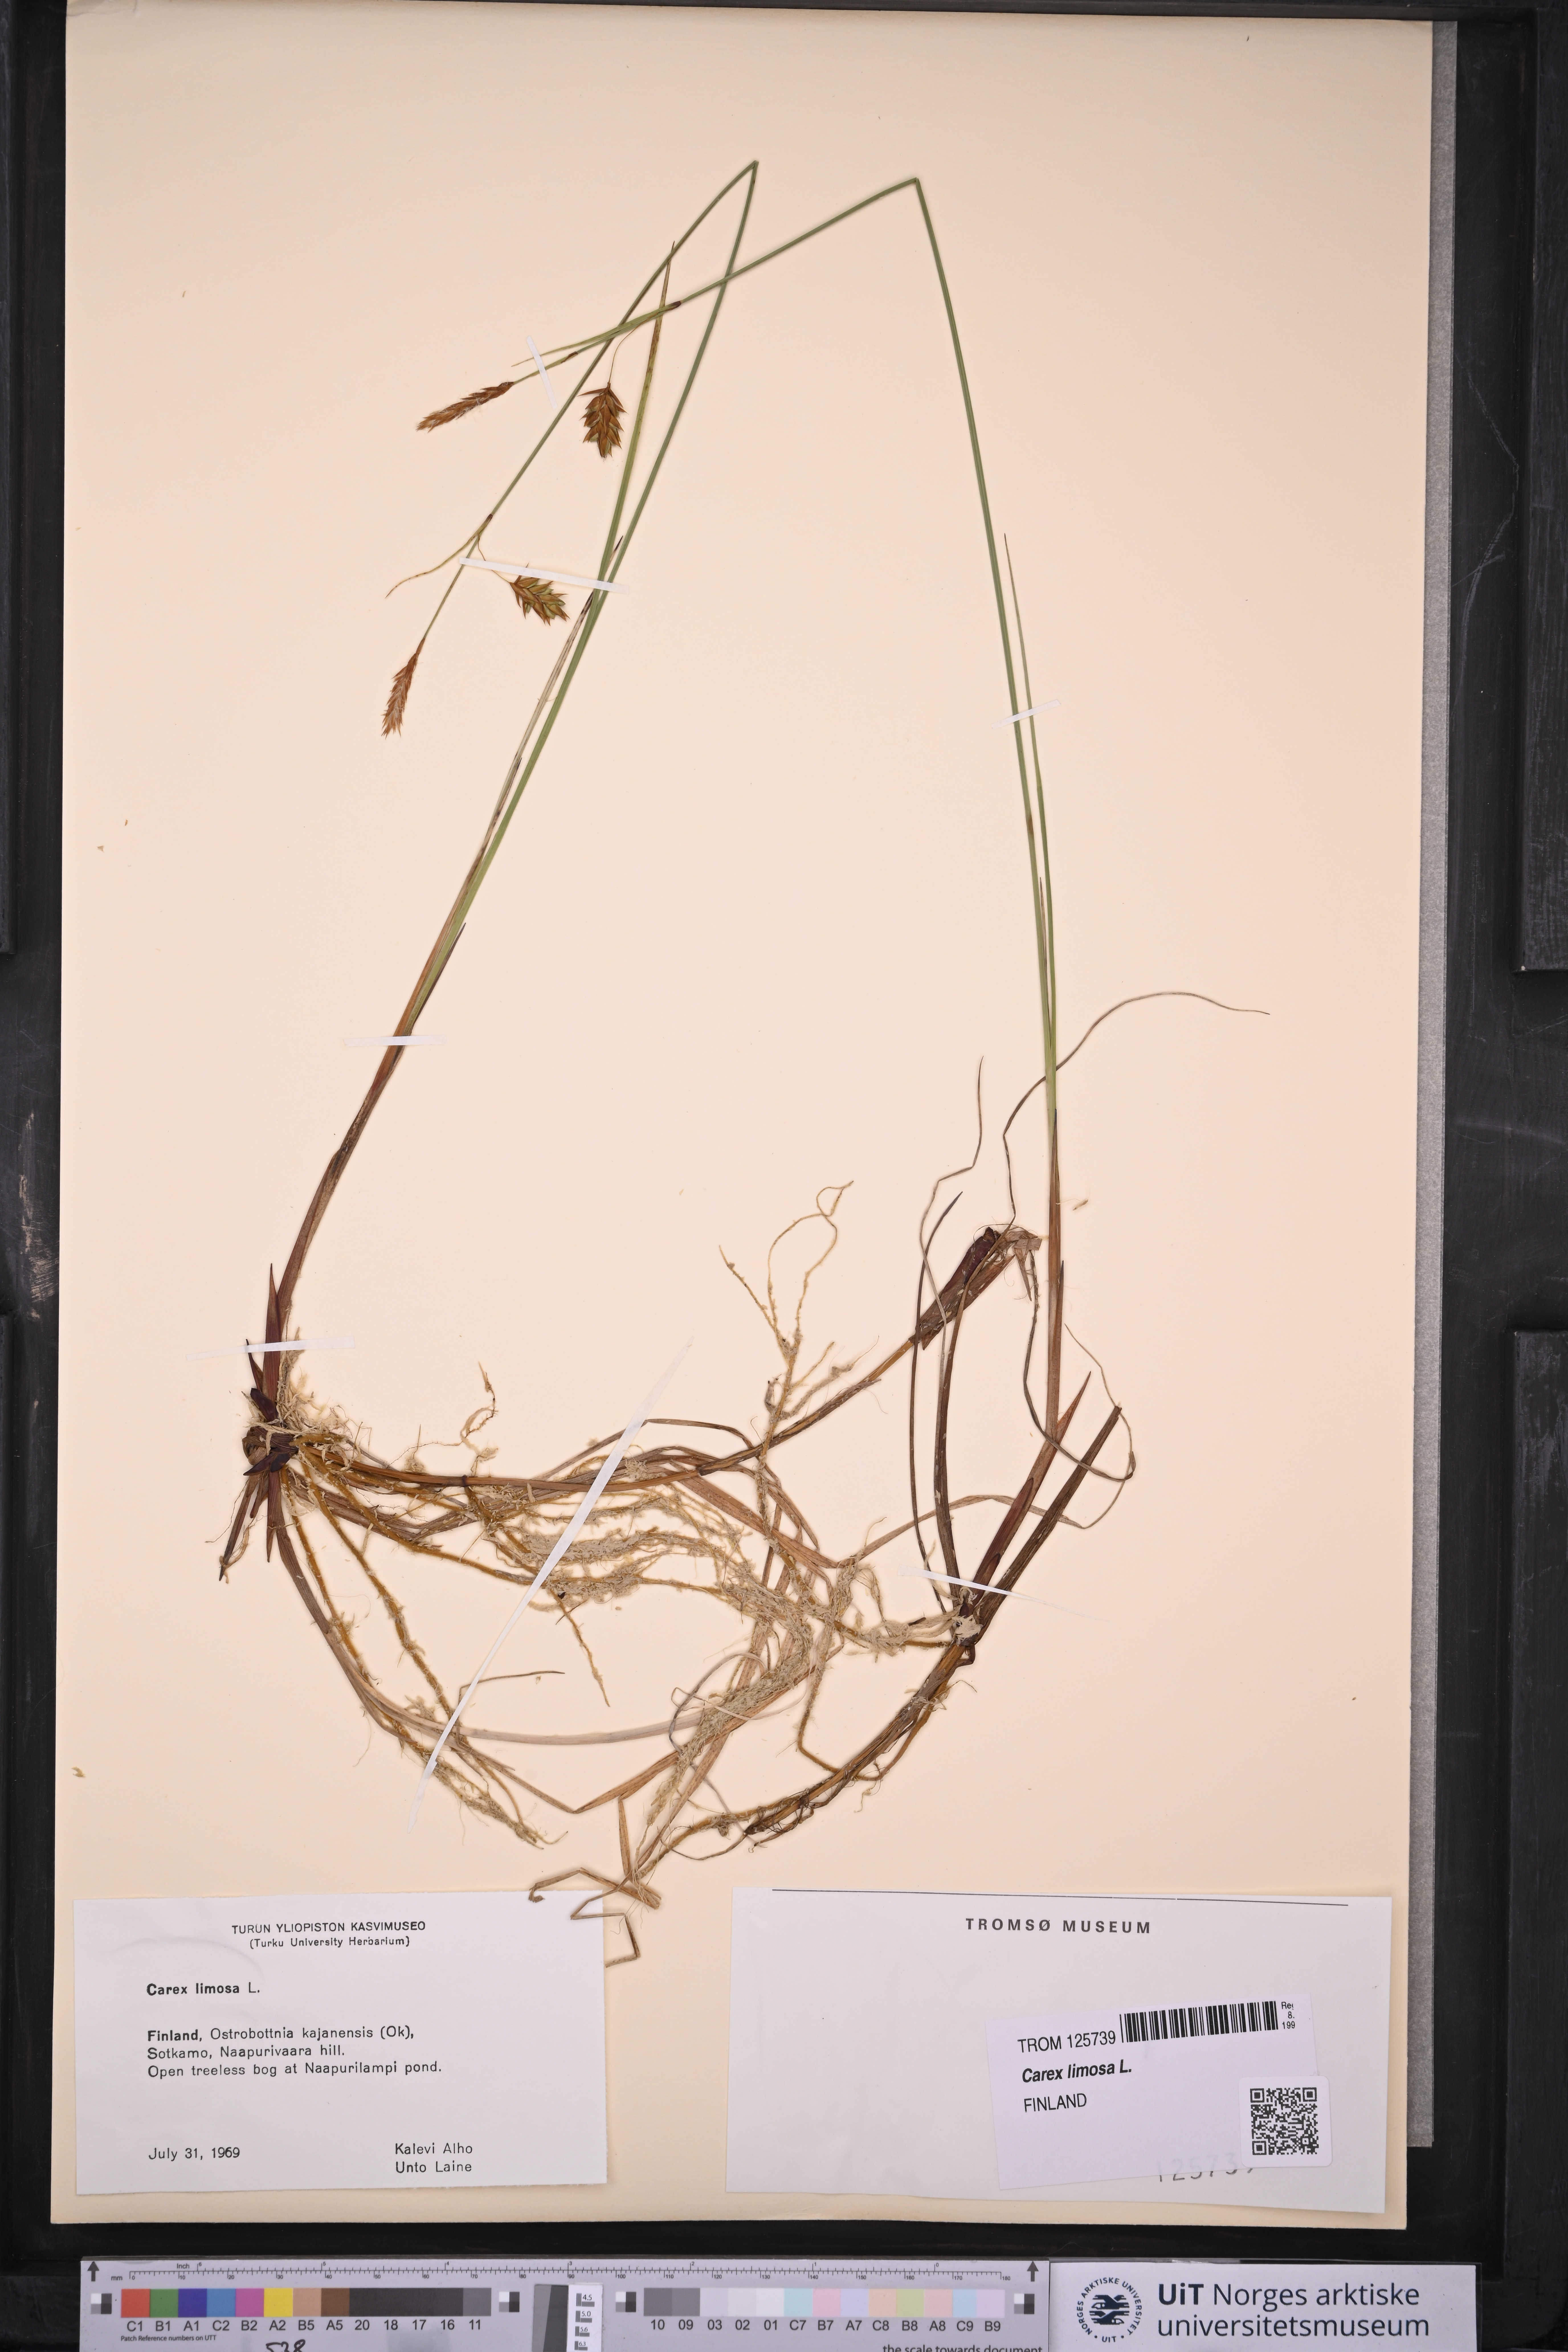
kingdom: Plantae
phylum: Tracheophyta
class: Liliopsida
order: Poales
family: Cyperaceae
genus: Carex
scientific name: Carex limosa
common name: Bog sedge
